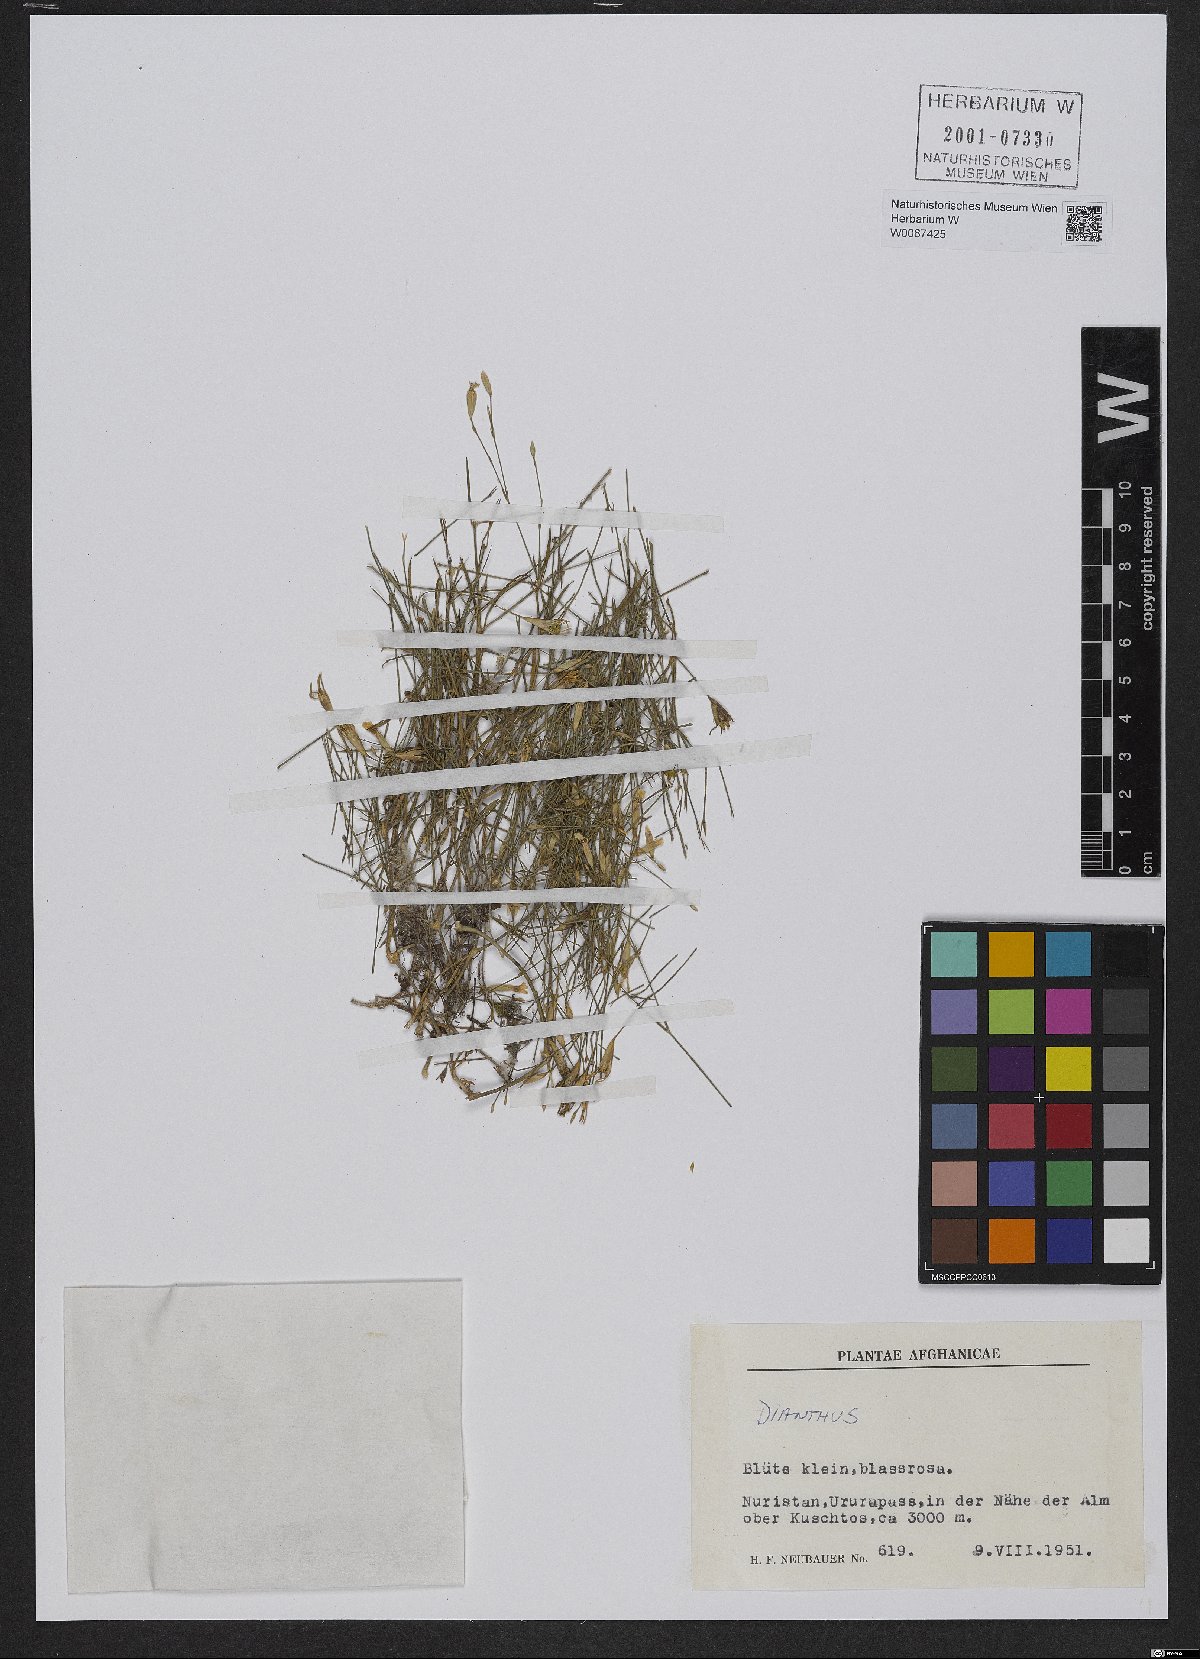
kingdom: Plantae
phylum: Tracheophyta
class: Magnoliopsida
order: Caryophyllales
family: Caryophyllaceae
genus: Dianthus
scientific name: Dianthus
